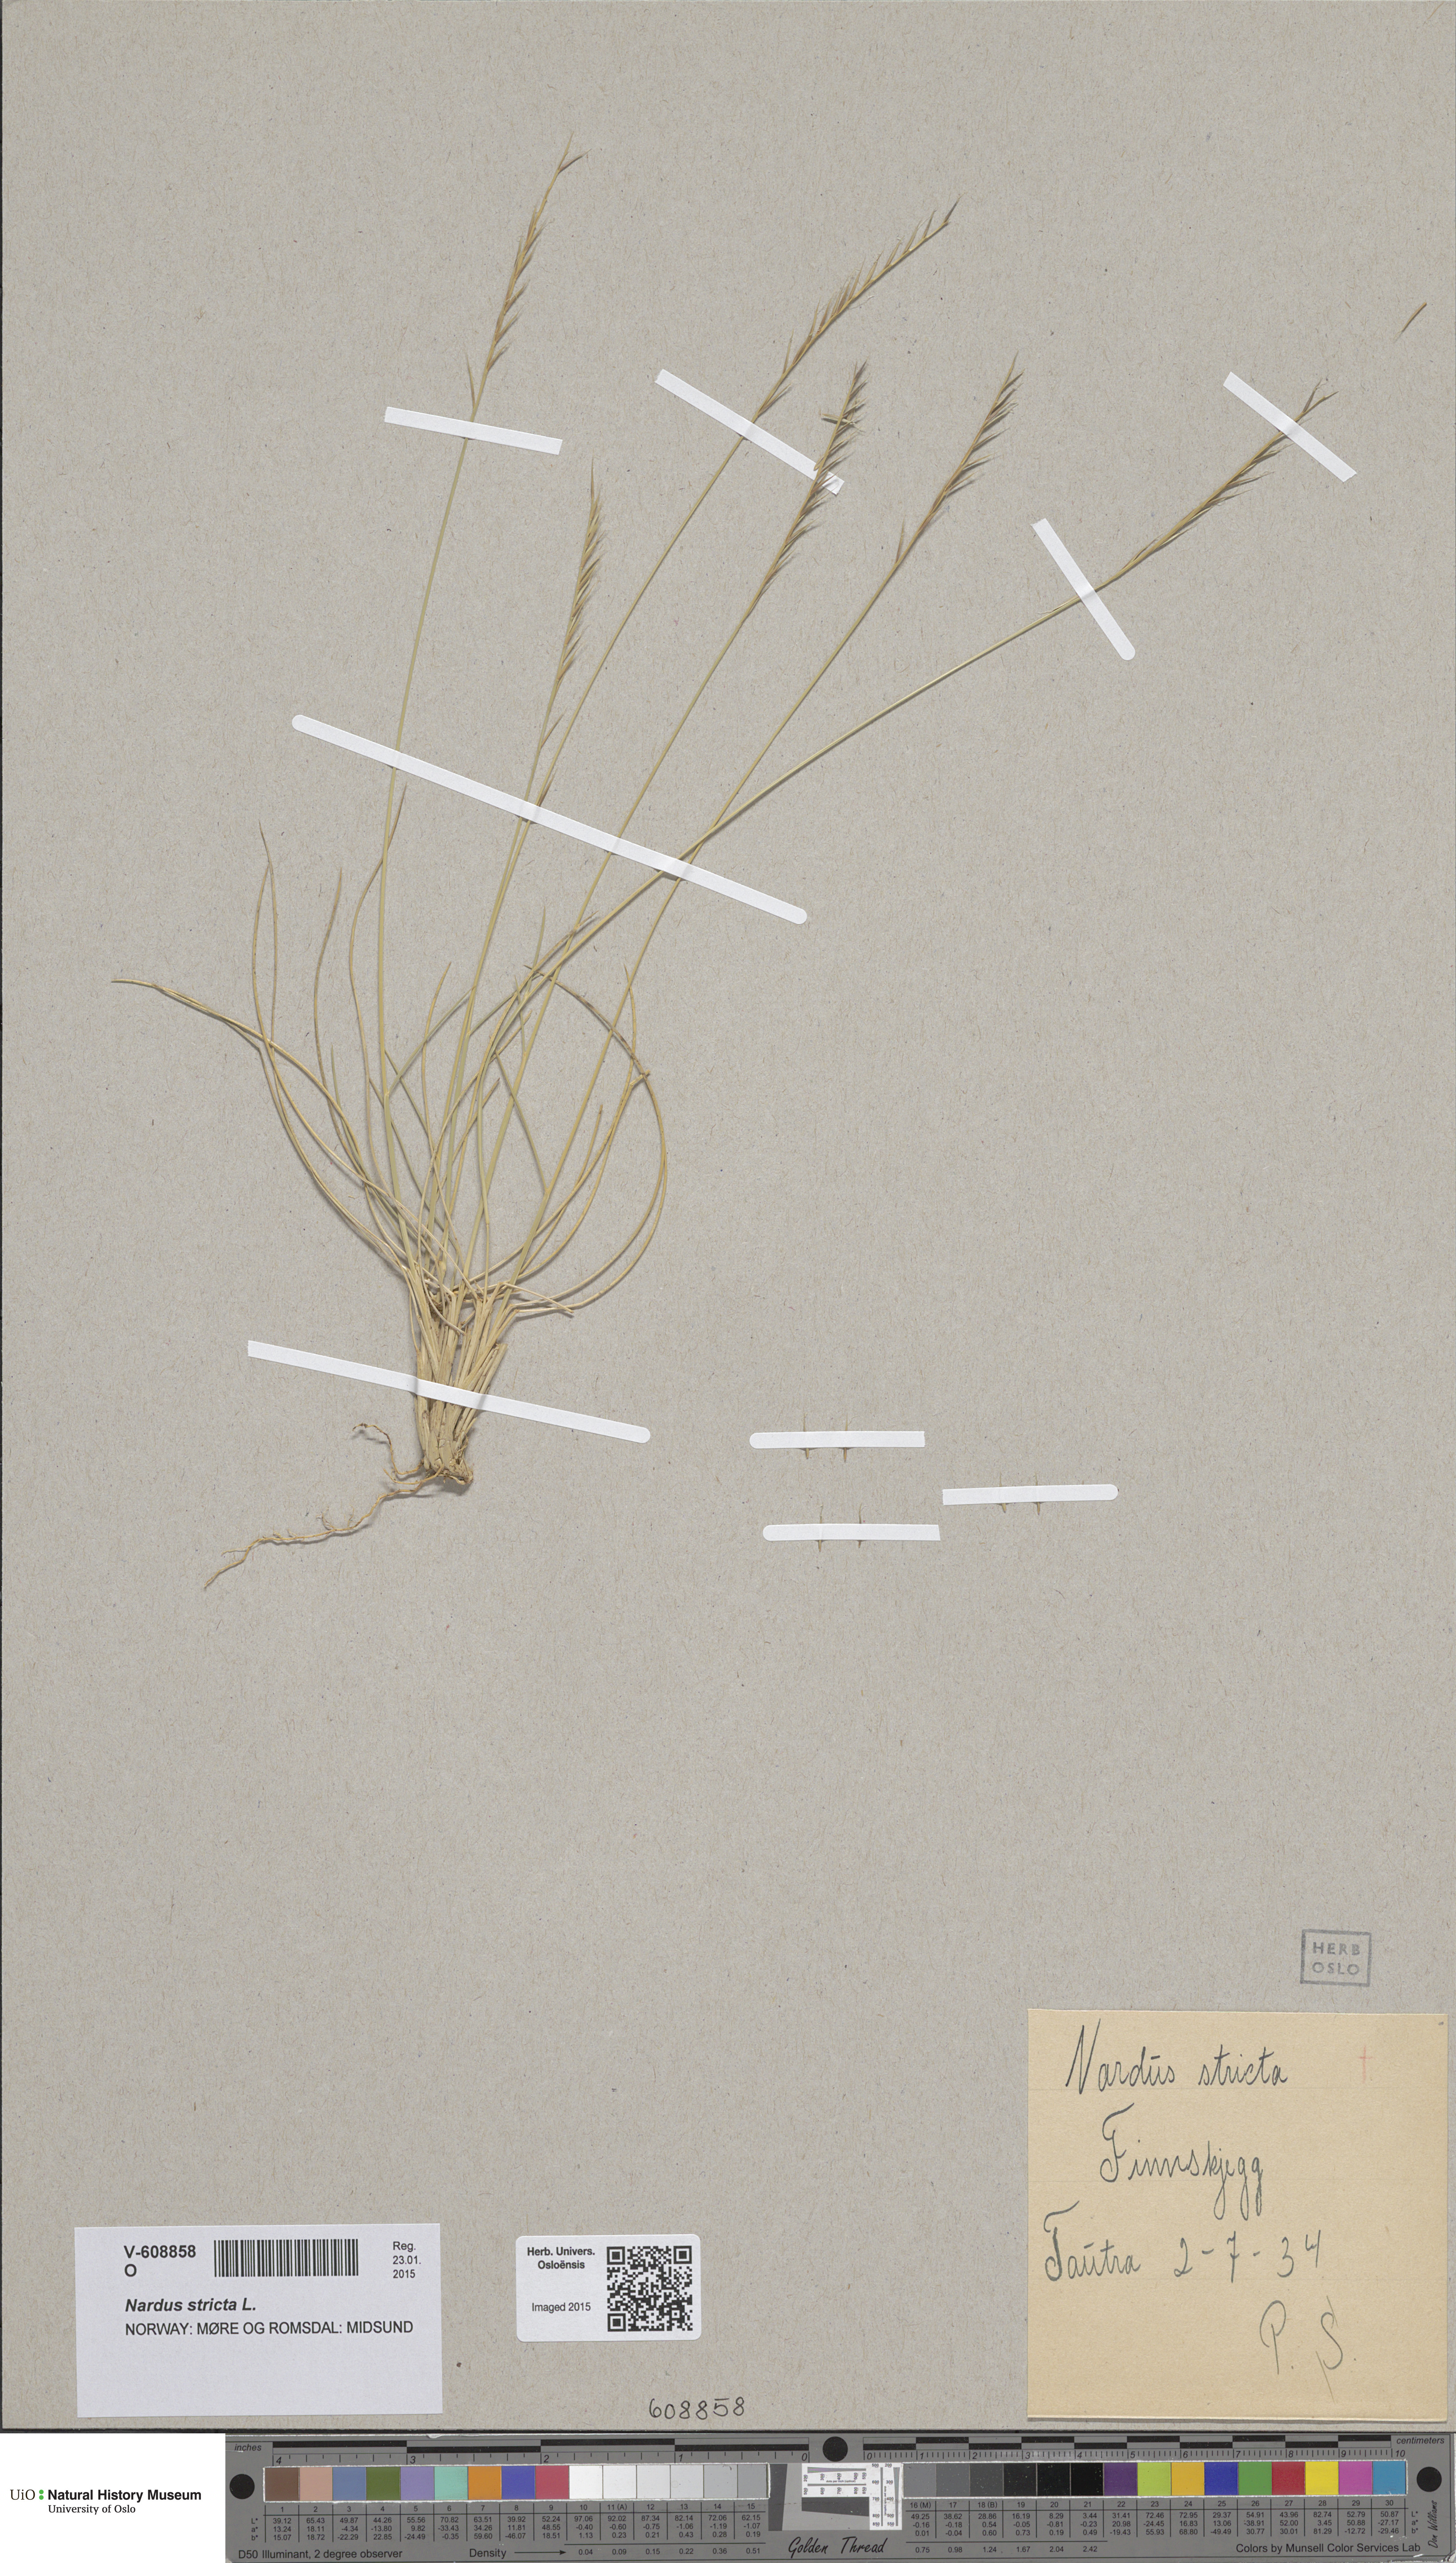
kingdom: Plantae
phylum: Tracheophyta
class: Liliopsida
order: Poales
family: Poaceae
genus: Nardus
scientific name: Nardus stricta
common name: Mat-grass
